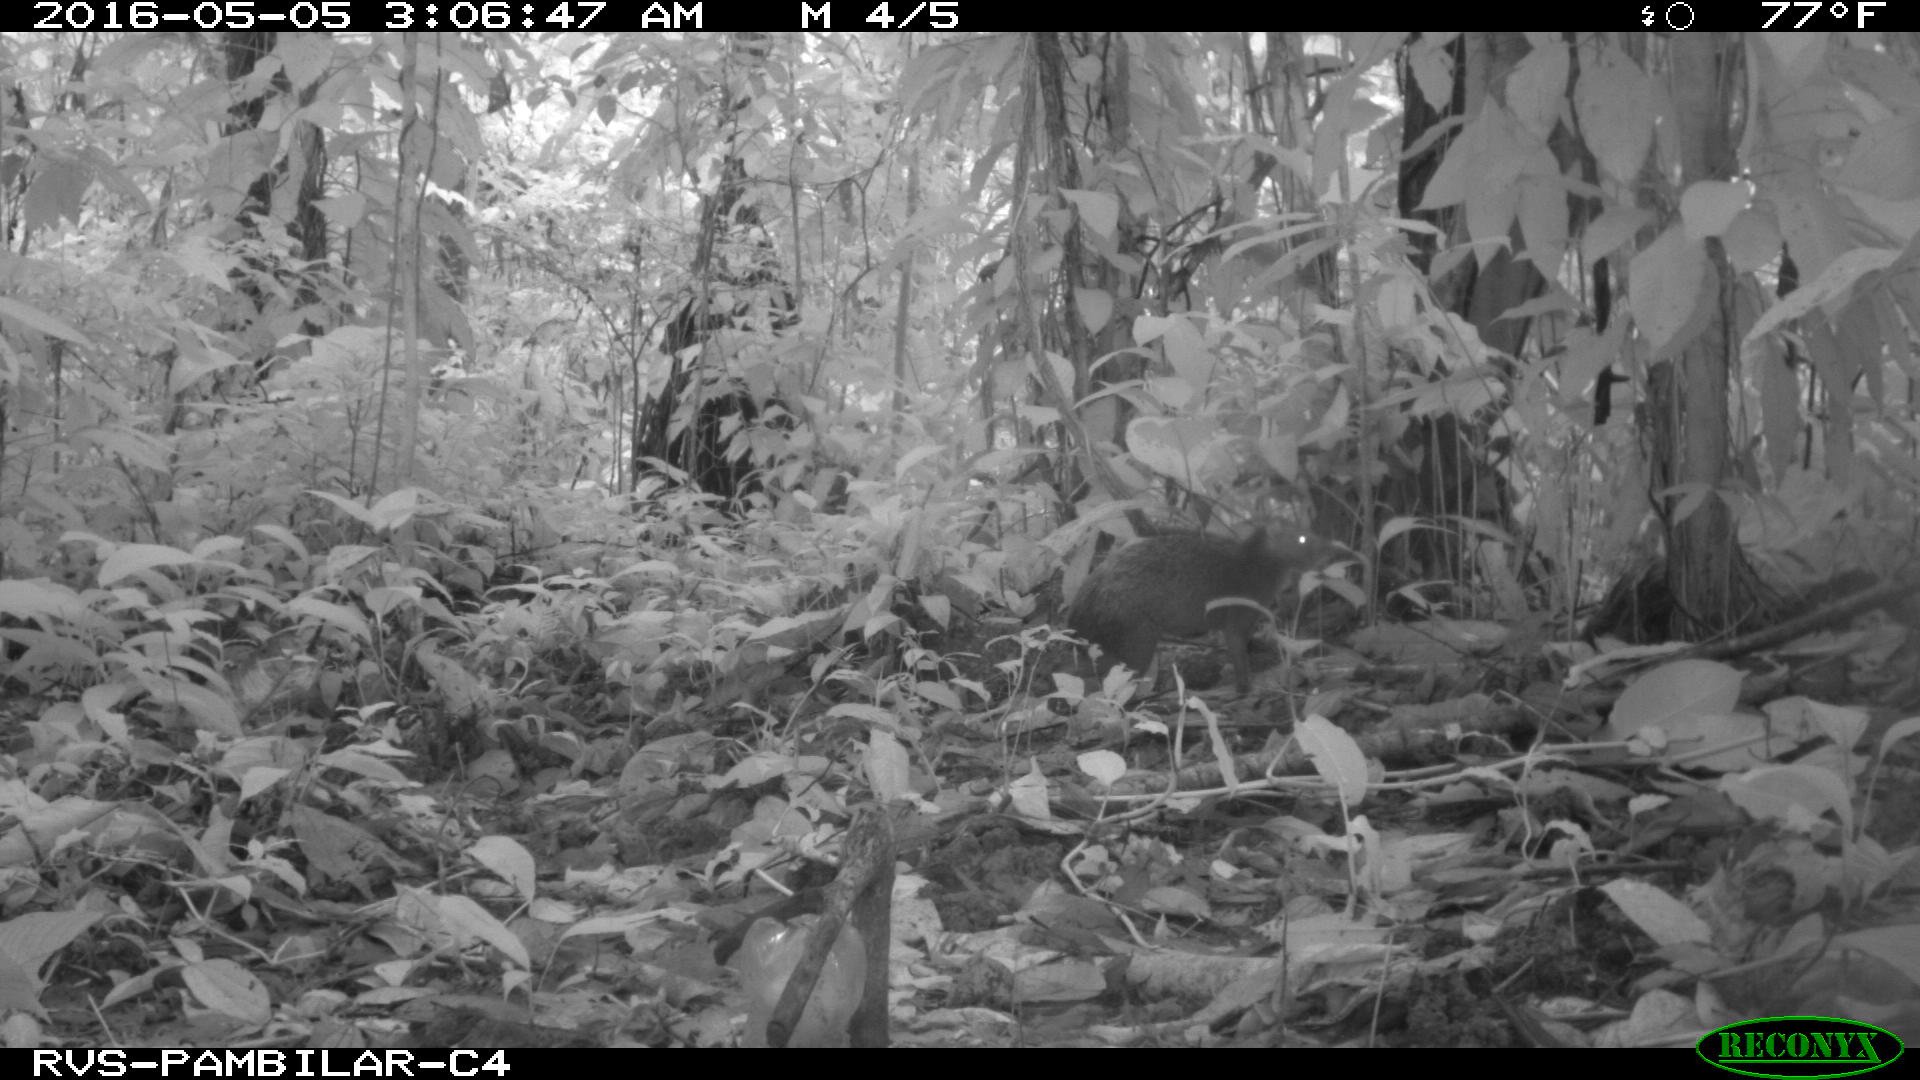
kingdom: Animalia
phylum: Chordata
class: Mammalia
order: Rodentia
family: Dasyproctidae
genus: Dasyprocta
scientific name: Dasyprocta punctata
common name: Central american agouti
